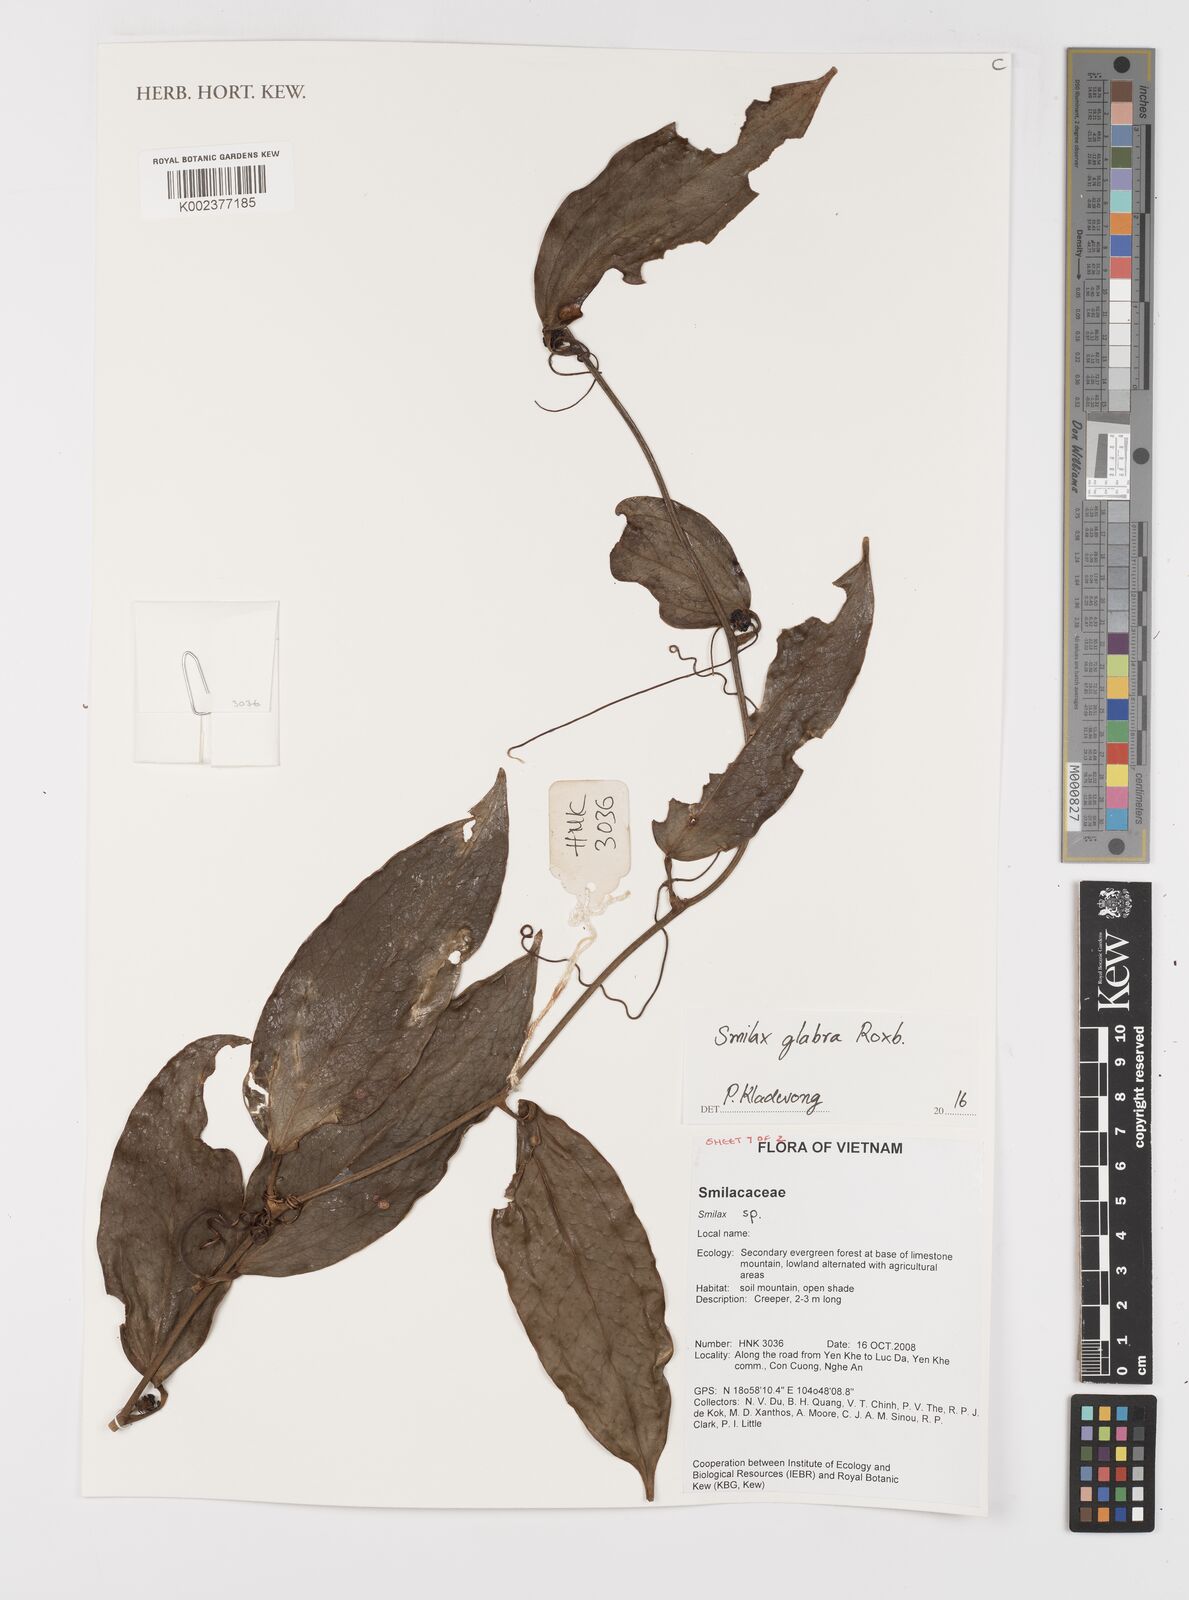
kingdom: Plantae
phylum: Tracheophyta
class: Liliopsida
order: Liliales
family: Smilacaceae
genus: Smilax
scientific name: Smilax glabra
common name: Chinese smilax
